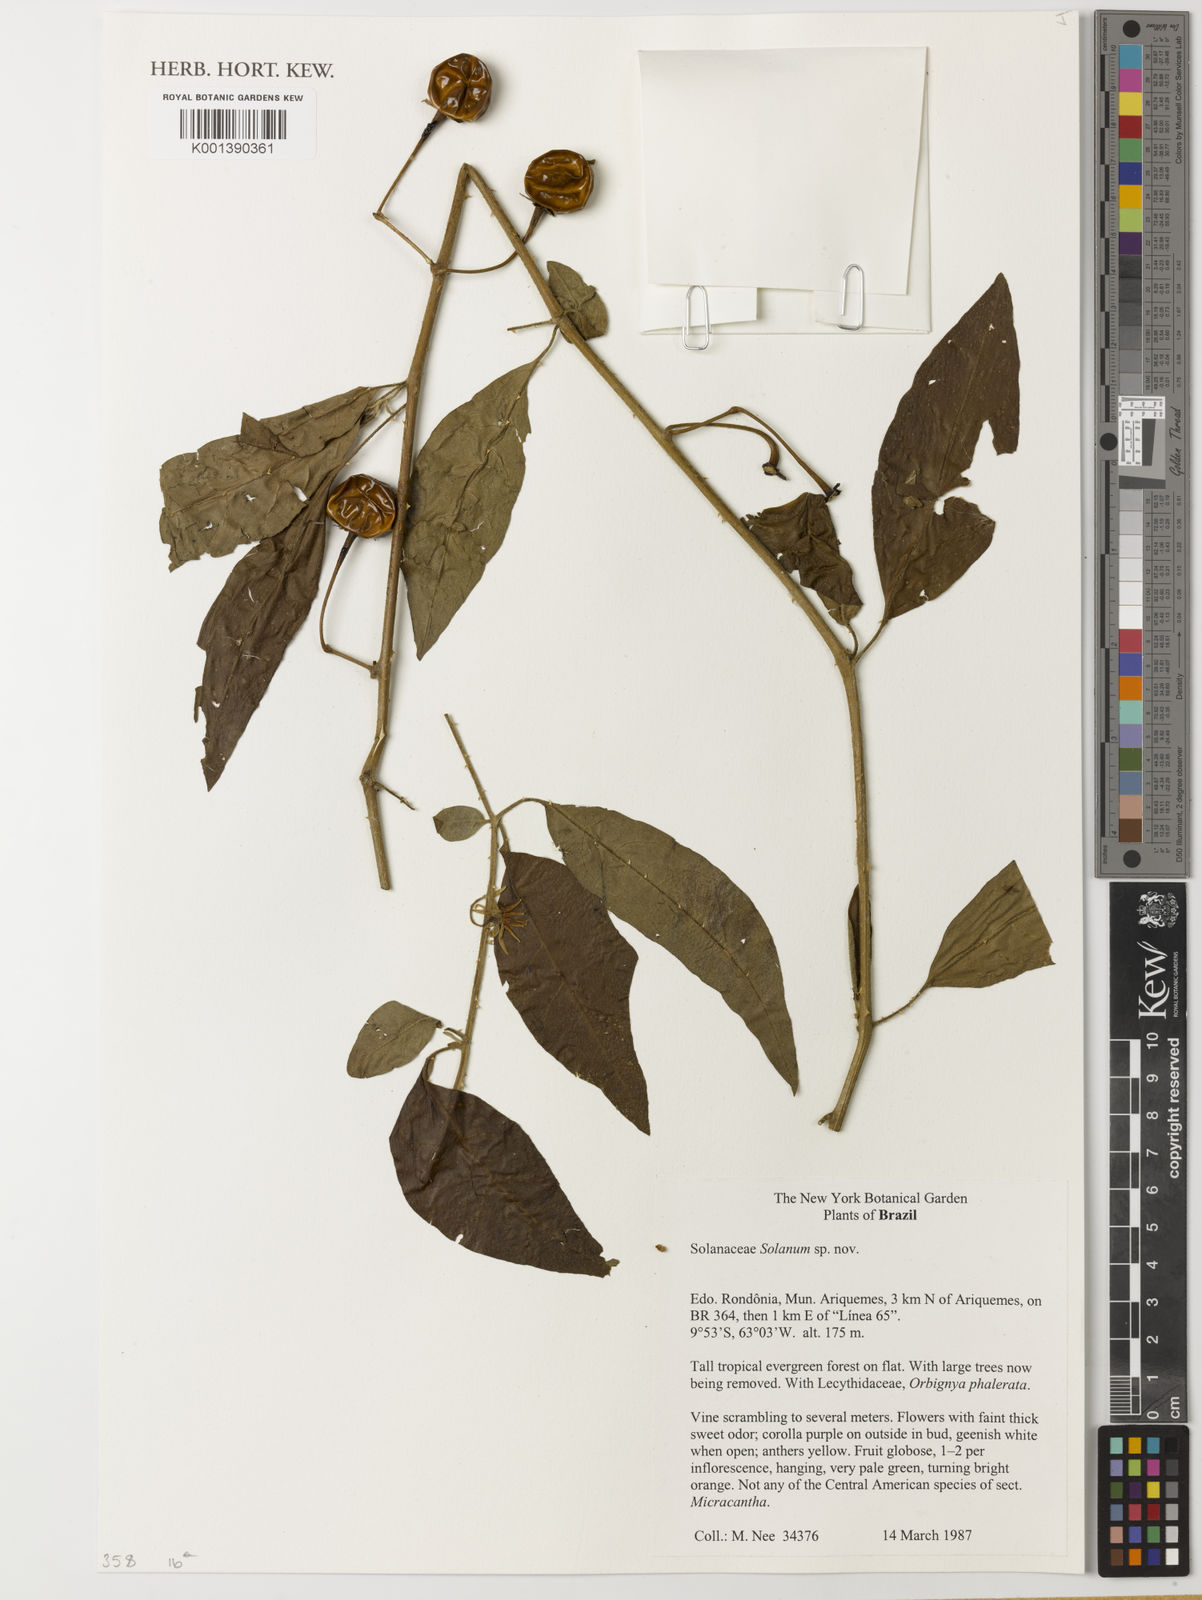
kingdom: Plantae
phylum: Tracheophyta
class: Magnoliopsida
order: Solanales
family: Solanaceae
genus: Solanum
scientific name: Solanum apaporanum
